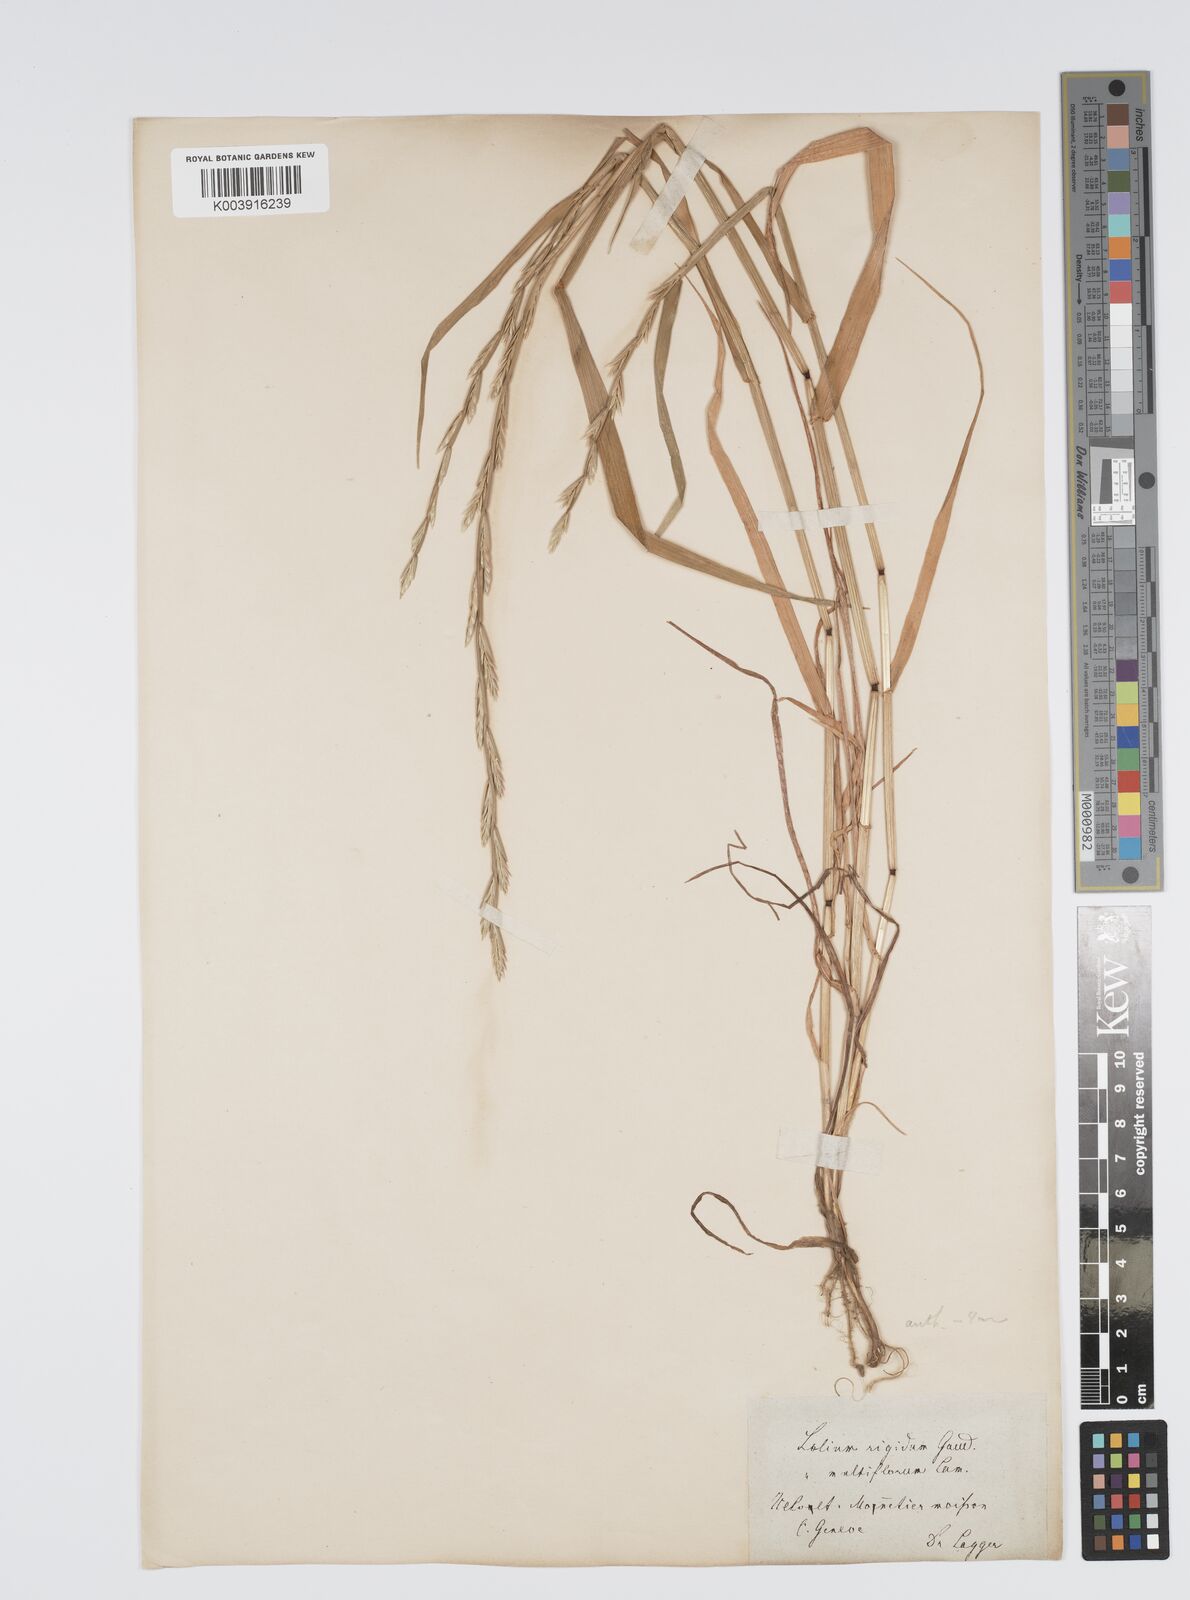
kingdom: Plantae
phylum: Tracheophyta
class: Liliopsida
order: Poales
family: Poaceae
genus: Lolium
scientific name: Lolium rigidum
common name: Wimmera ryegrass
